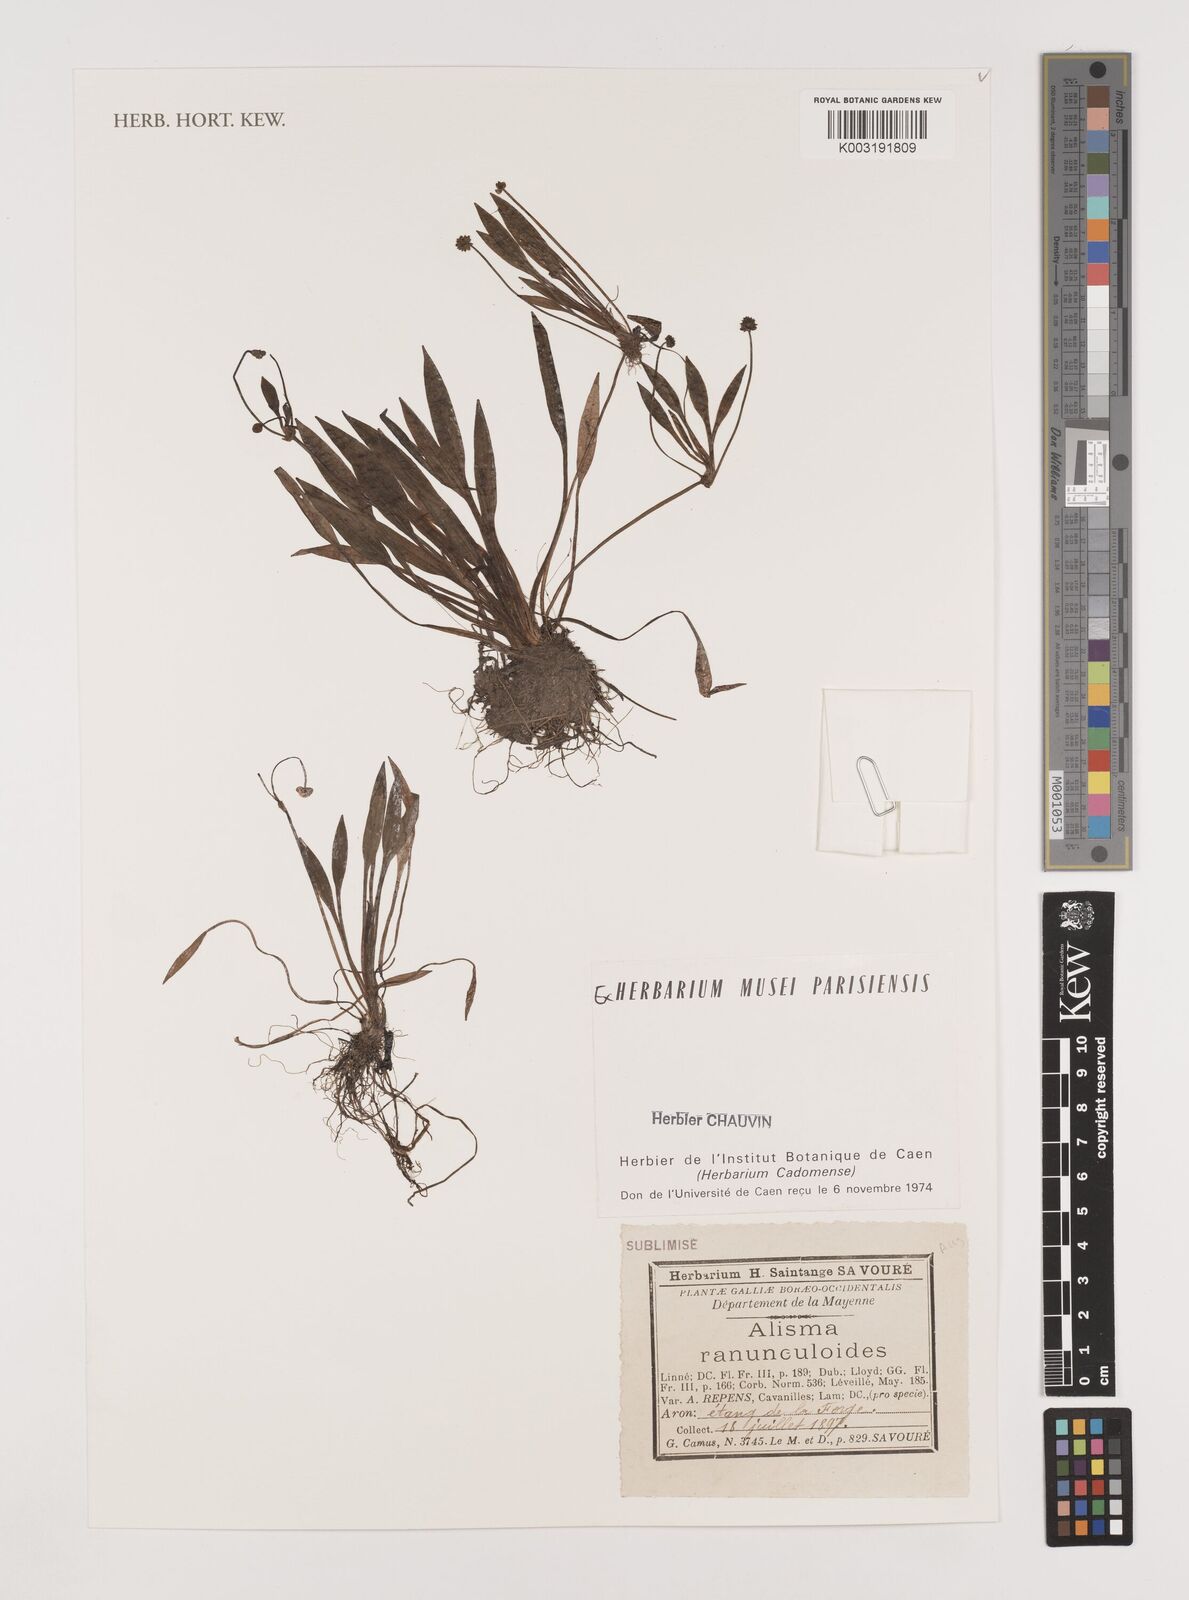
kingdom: Plantae
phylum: Tracheophyta
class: Liliopsida
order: Alismatales
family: Alismataceae
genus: Baldellia
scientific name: Baldellia ranunculoides
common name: Lesser water-plantain
